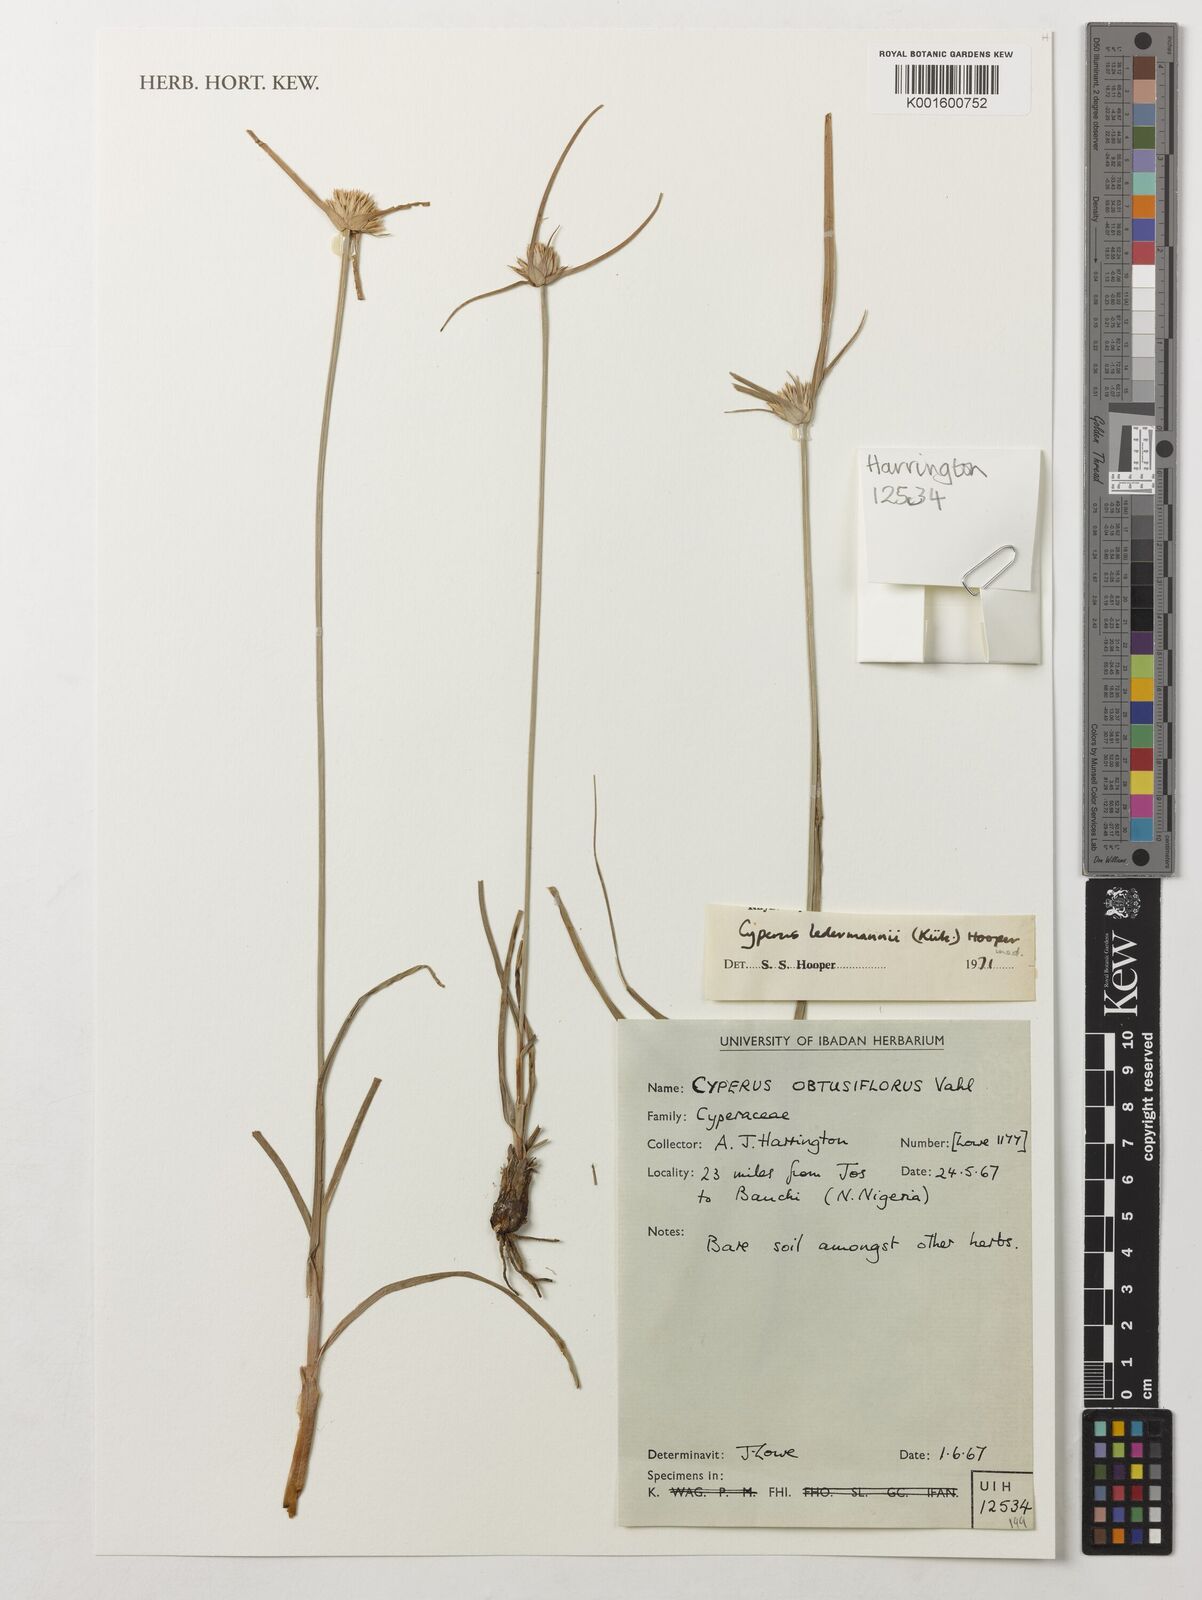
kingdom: Plantae
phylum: Tracheophyta
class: Liliopsida
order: Poales
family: Cyperaceae
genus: Cyperus
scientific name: Cyperus niveus
